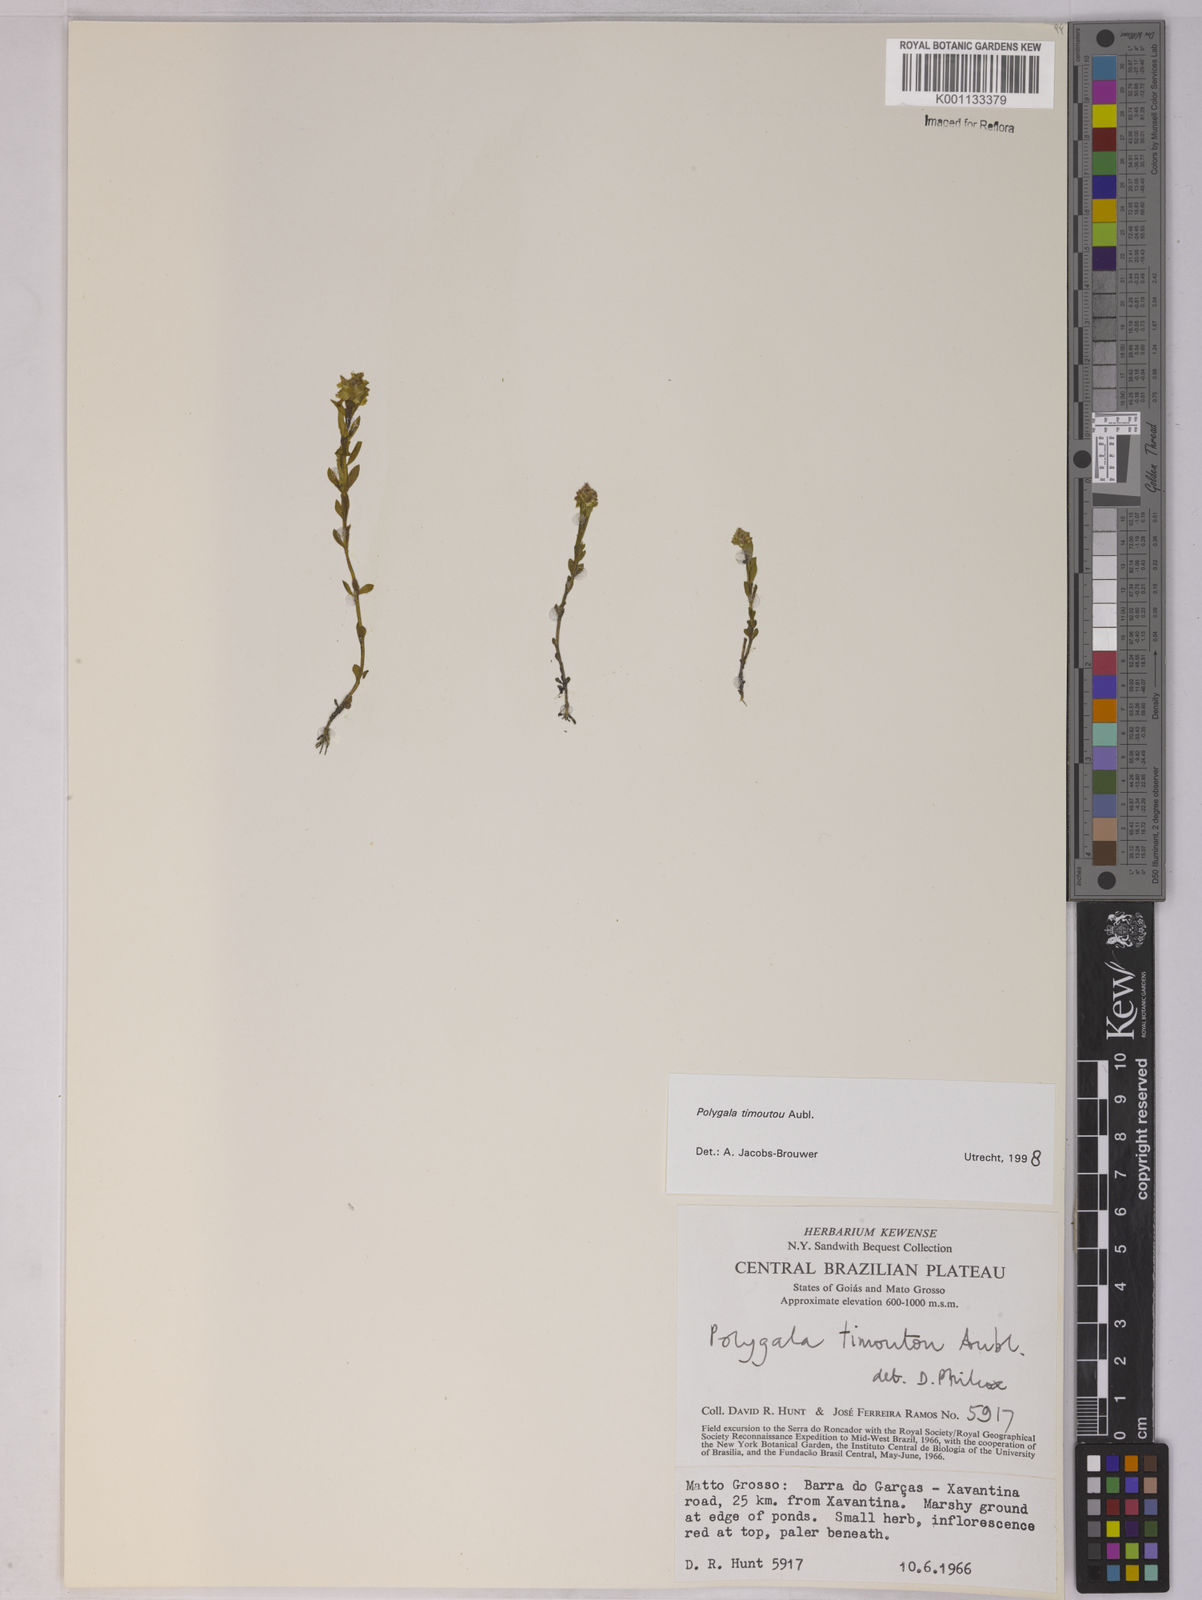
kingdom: Plantae
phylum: Tracheophyta
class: Magnoliopsida
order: Fabales
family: Polygalaceae
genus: Polygala
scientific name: Polygala timoutoides
